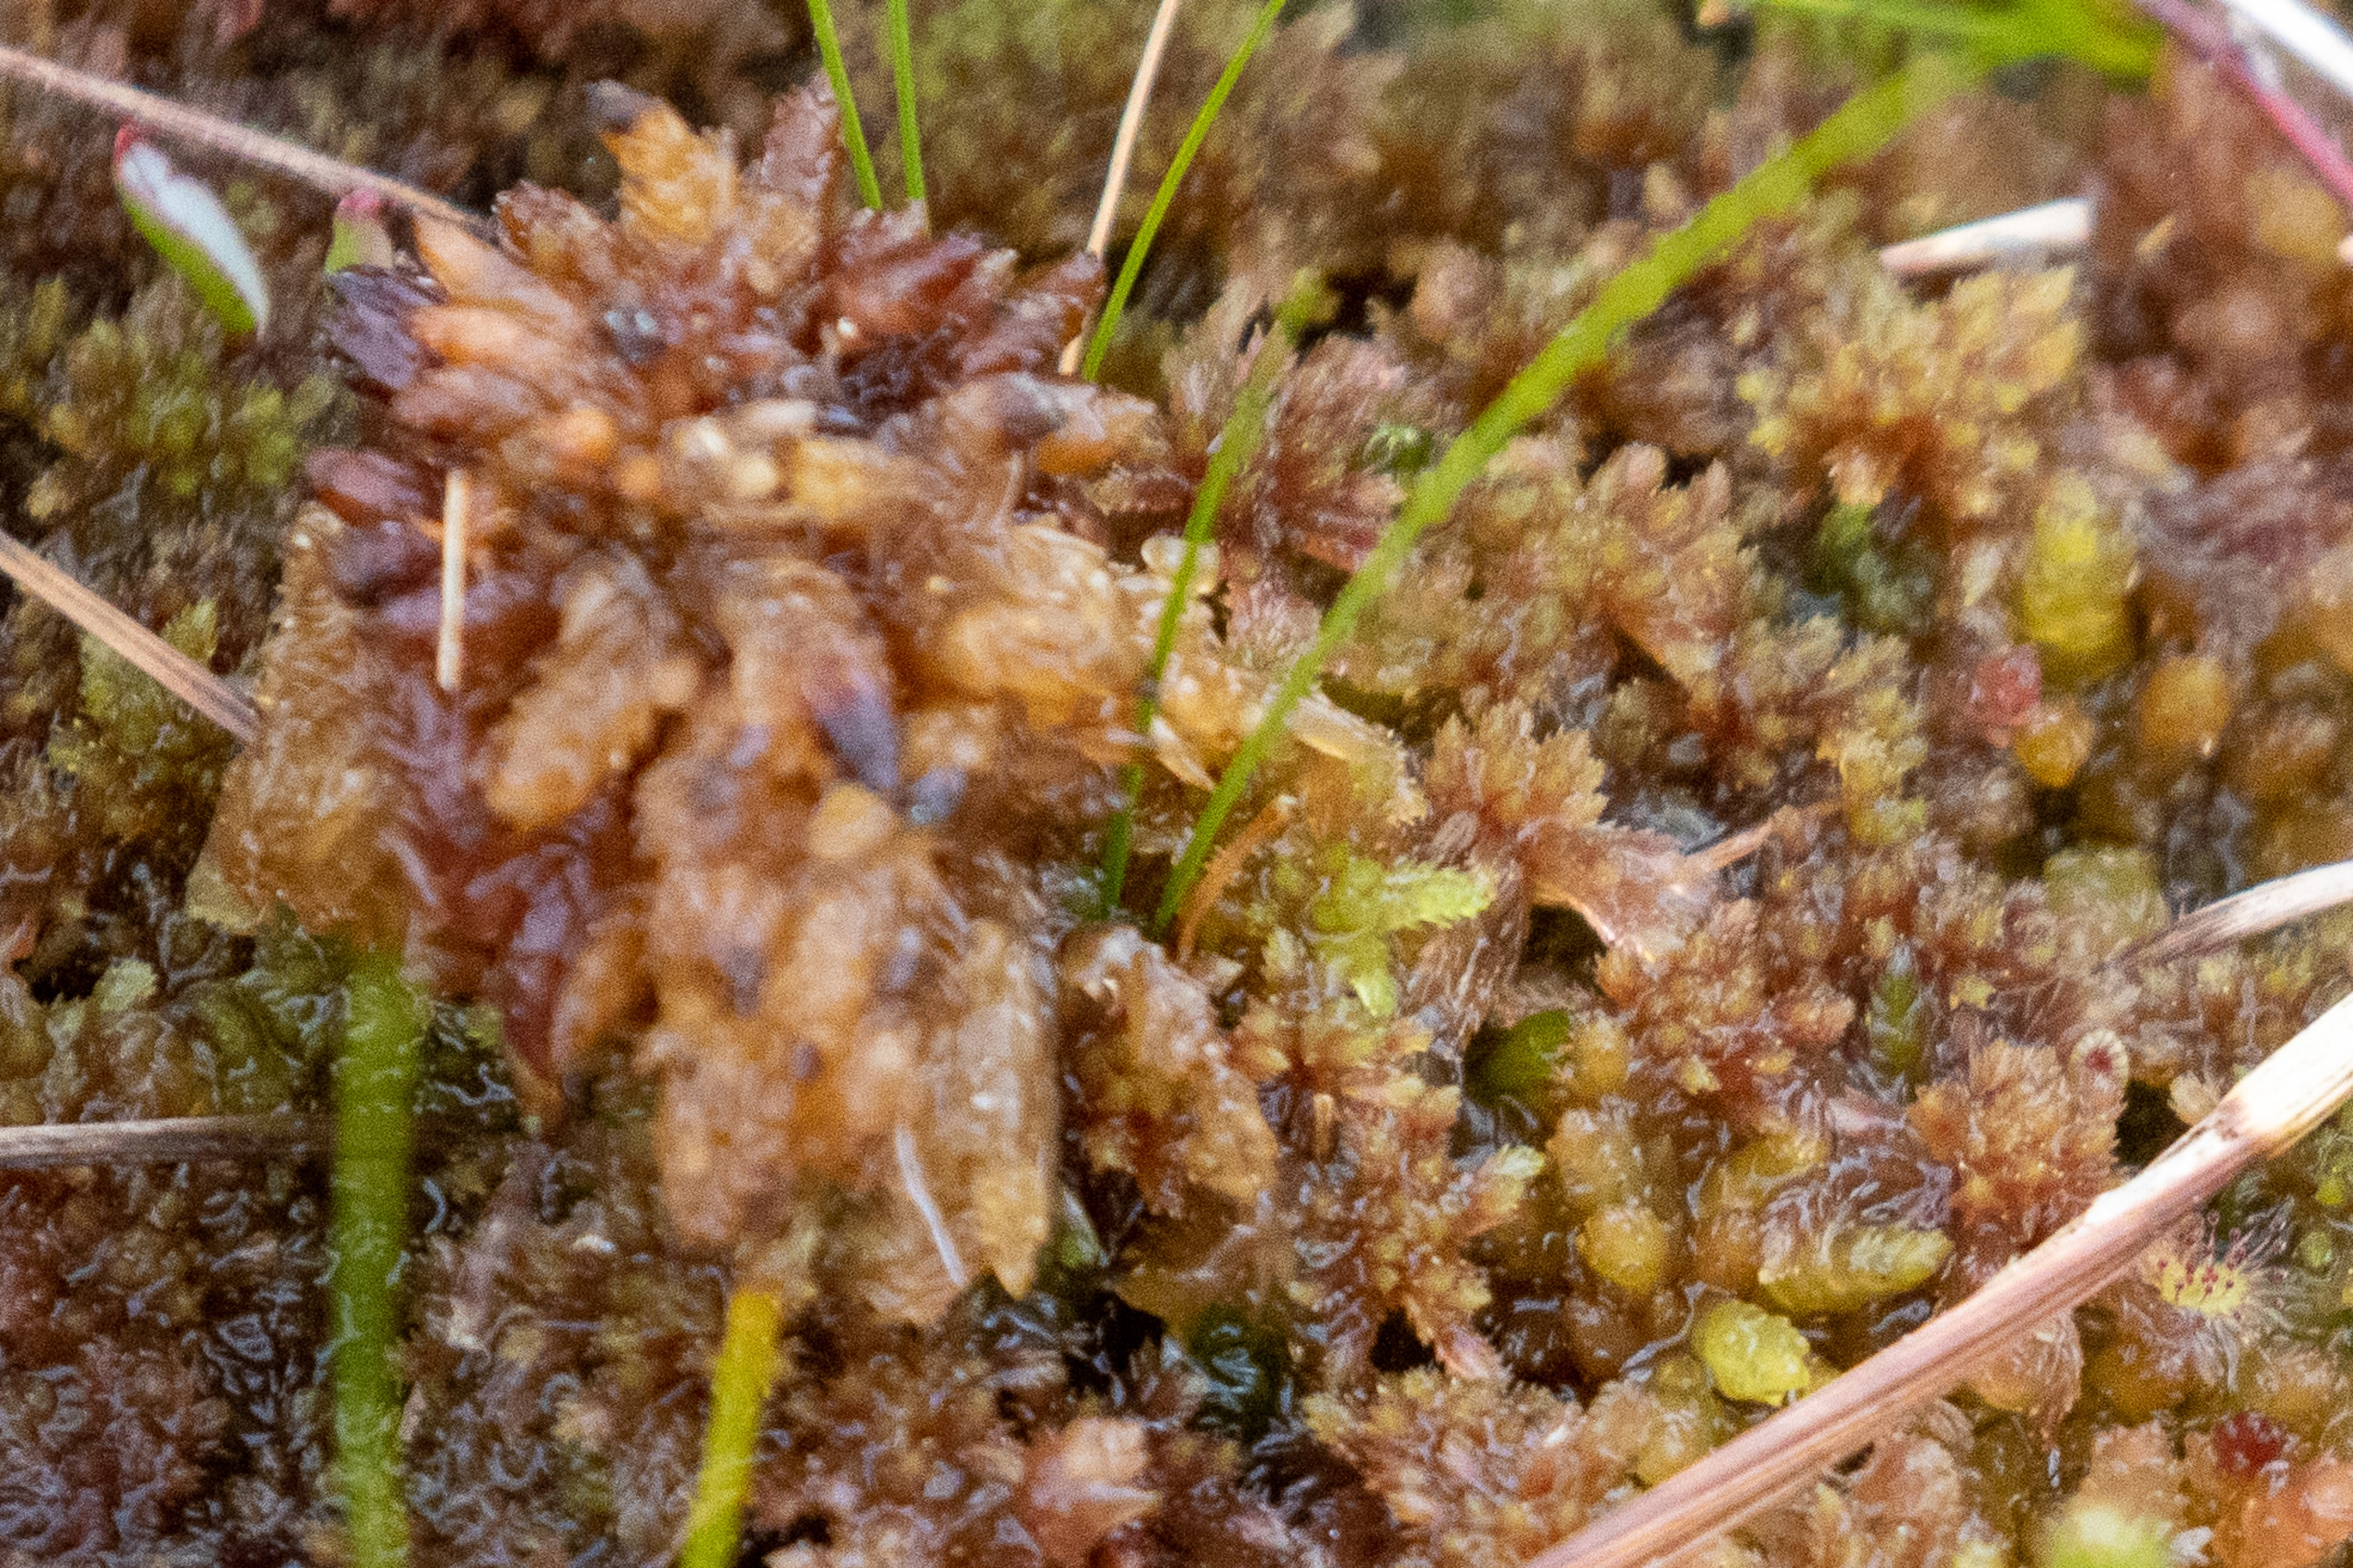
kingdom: Plantae
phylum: Bryophyta
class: Sphagnopsida
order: Sphagnales
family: Sphagnaceae
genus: Sphagnum
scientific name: Sphagnum
